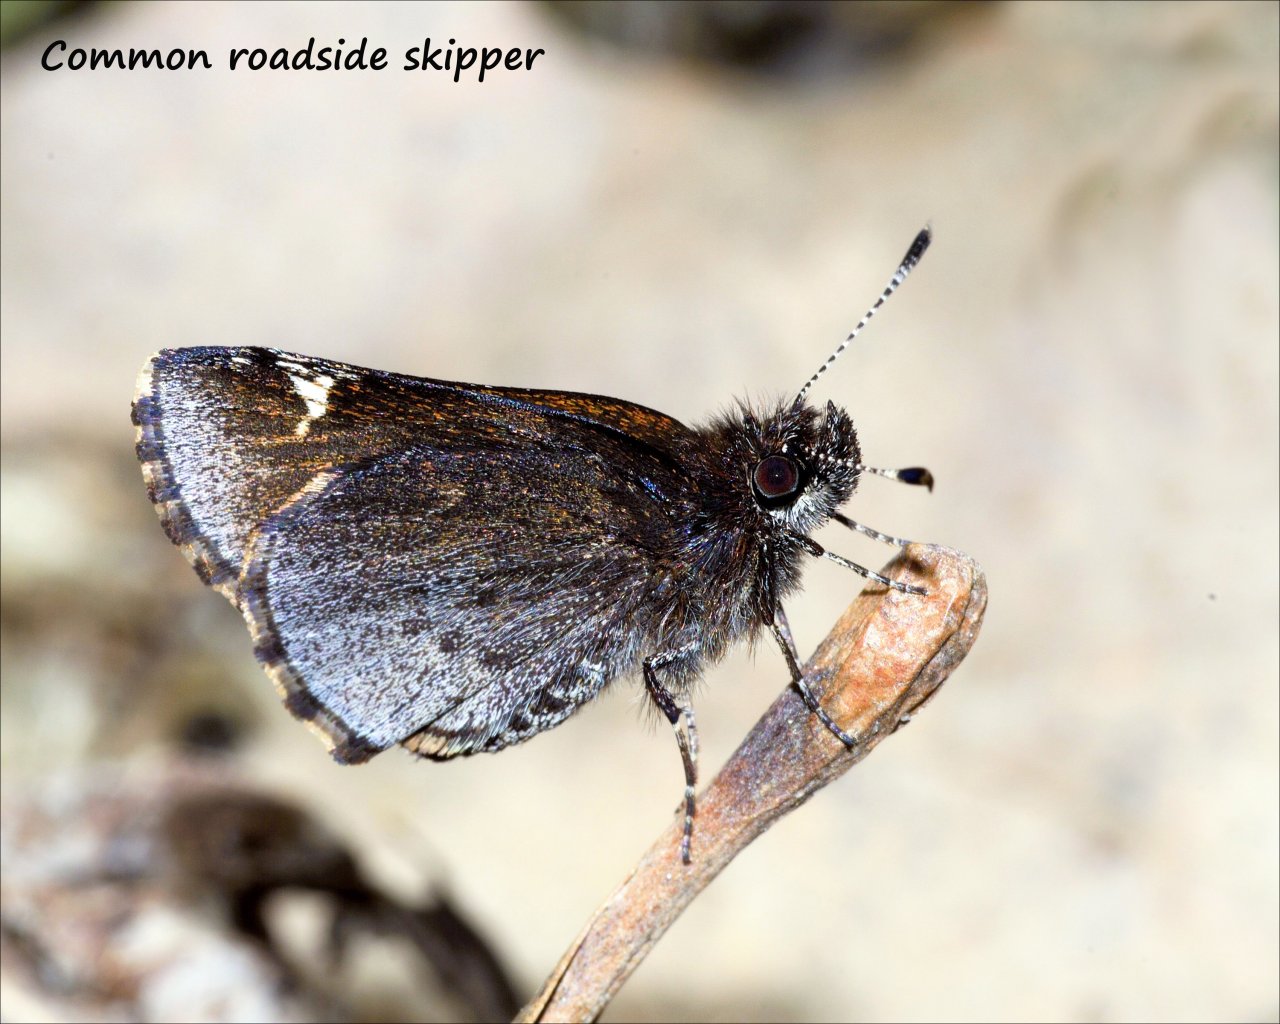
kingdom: Animalia
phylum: Arthropoda
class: Insecta
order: Lepidoptera
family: Hesperiidae
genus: Mastor
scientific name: Mastor vialis
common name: Common Roadside-Skipper
